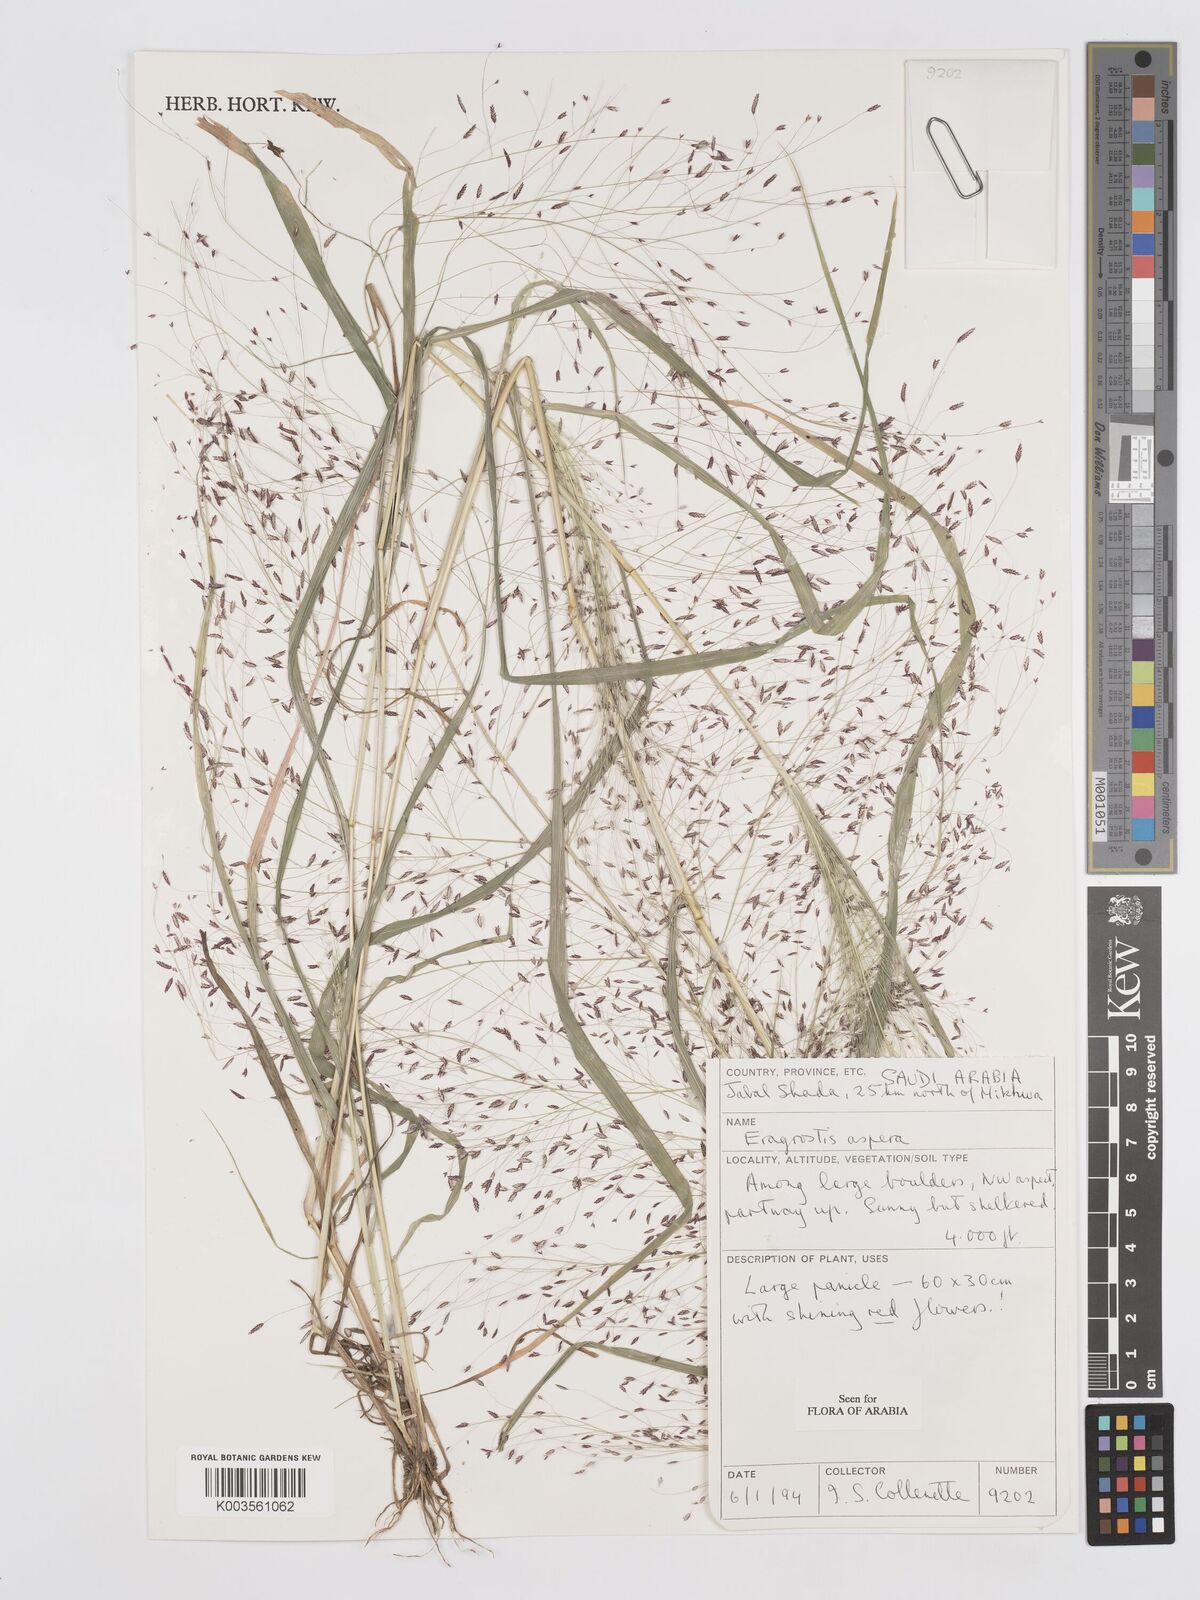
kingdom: Plantae
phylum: Tracheophyta
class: Liliopsida
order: Poales
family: Poaceae
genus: Eragrostis
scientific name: Eragrostis aspera
